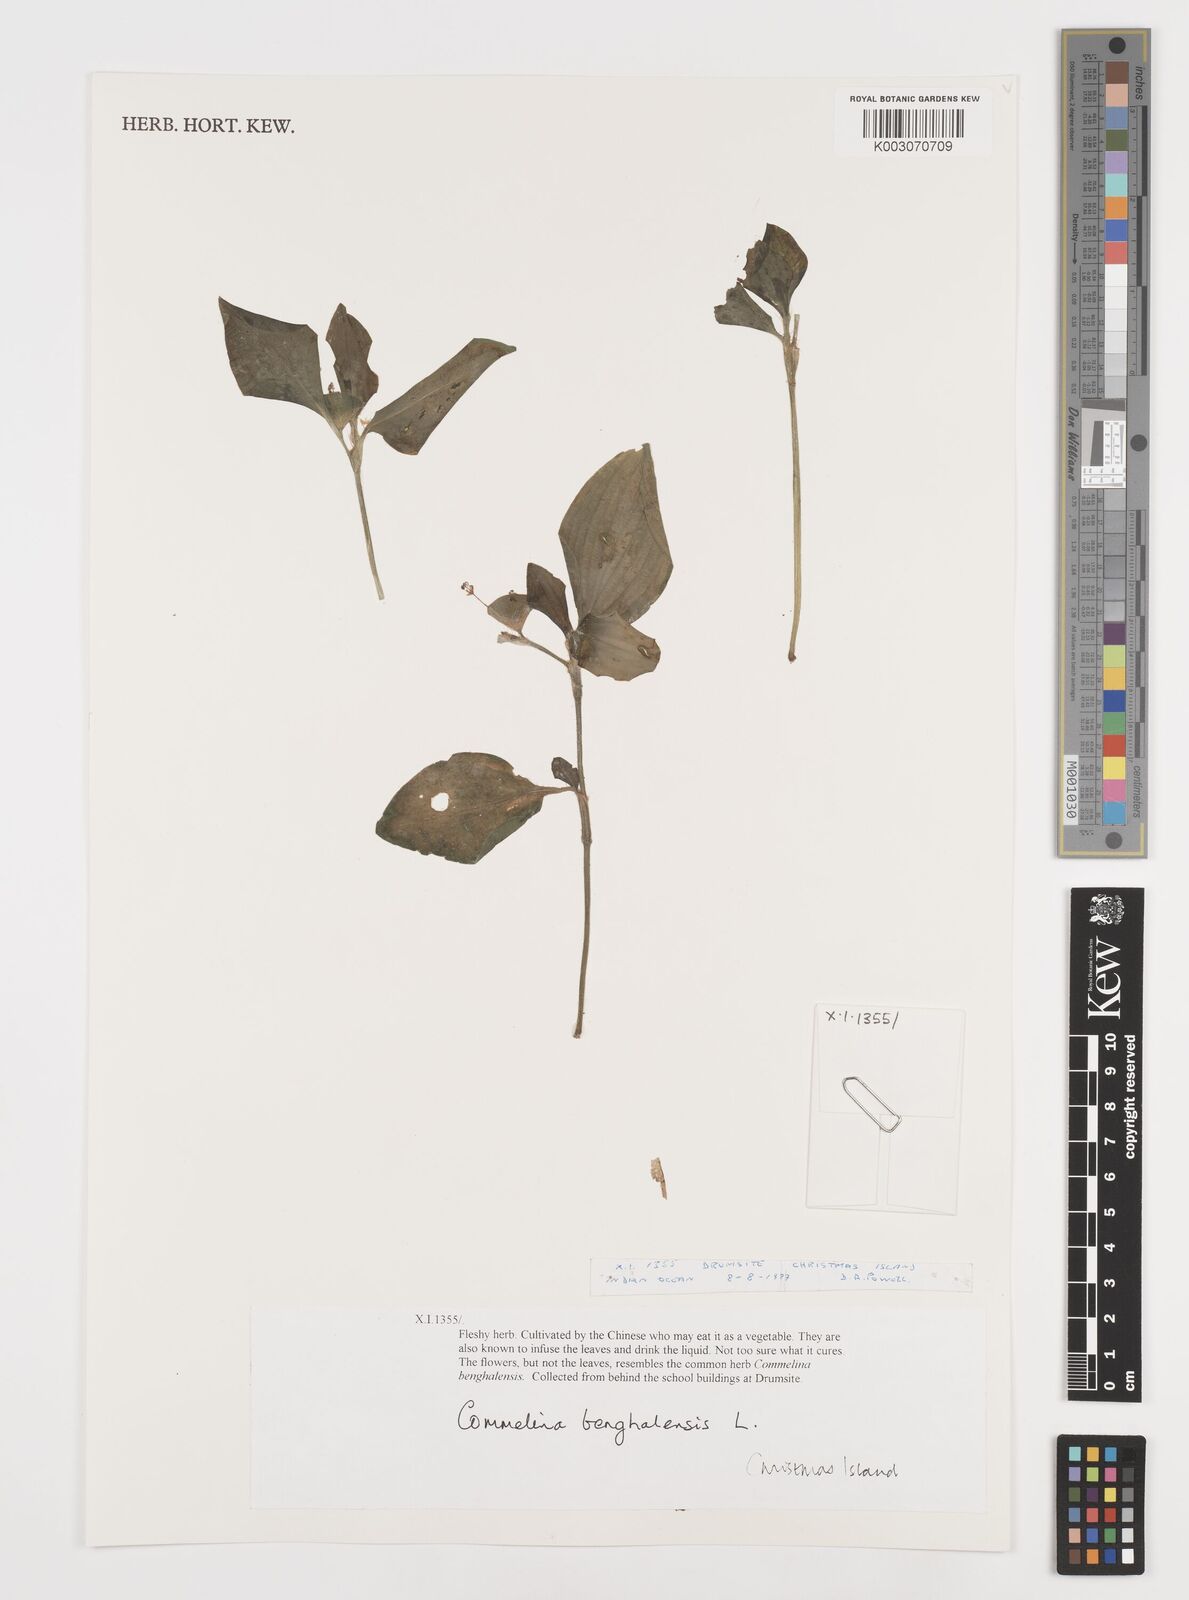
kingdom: Plantae
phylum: Tracheophyta
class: Liliopsida
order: Commelinales
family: Commelinaceae
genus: Commelina
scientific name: Commelina benghalensis
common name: Jio
